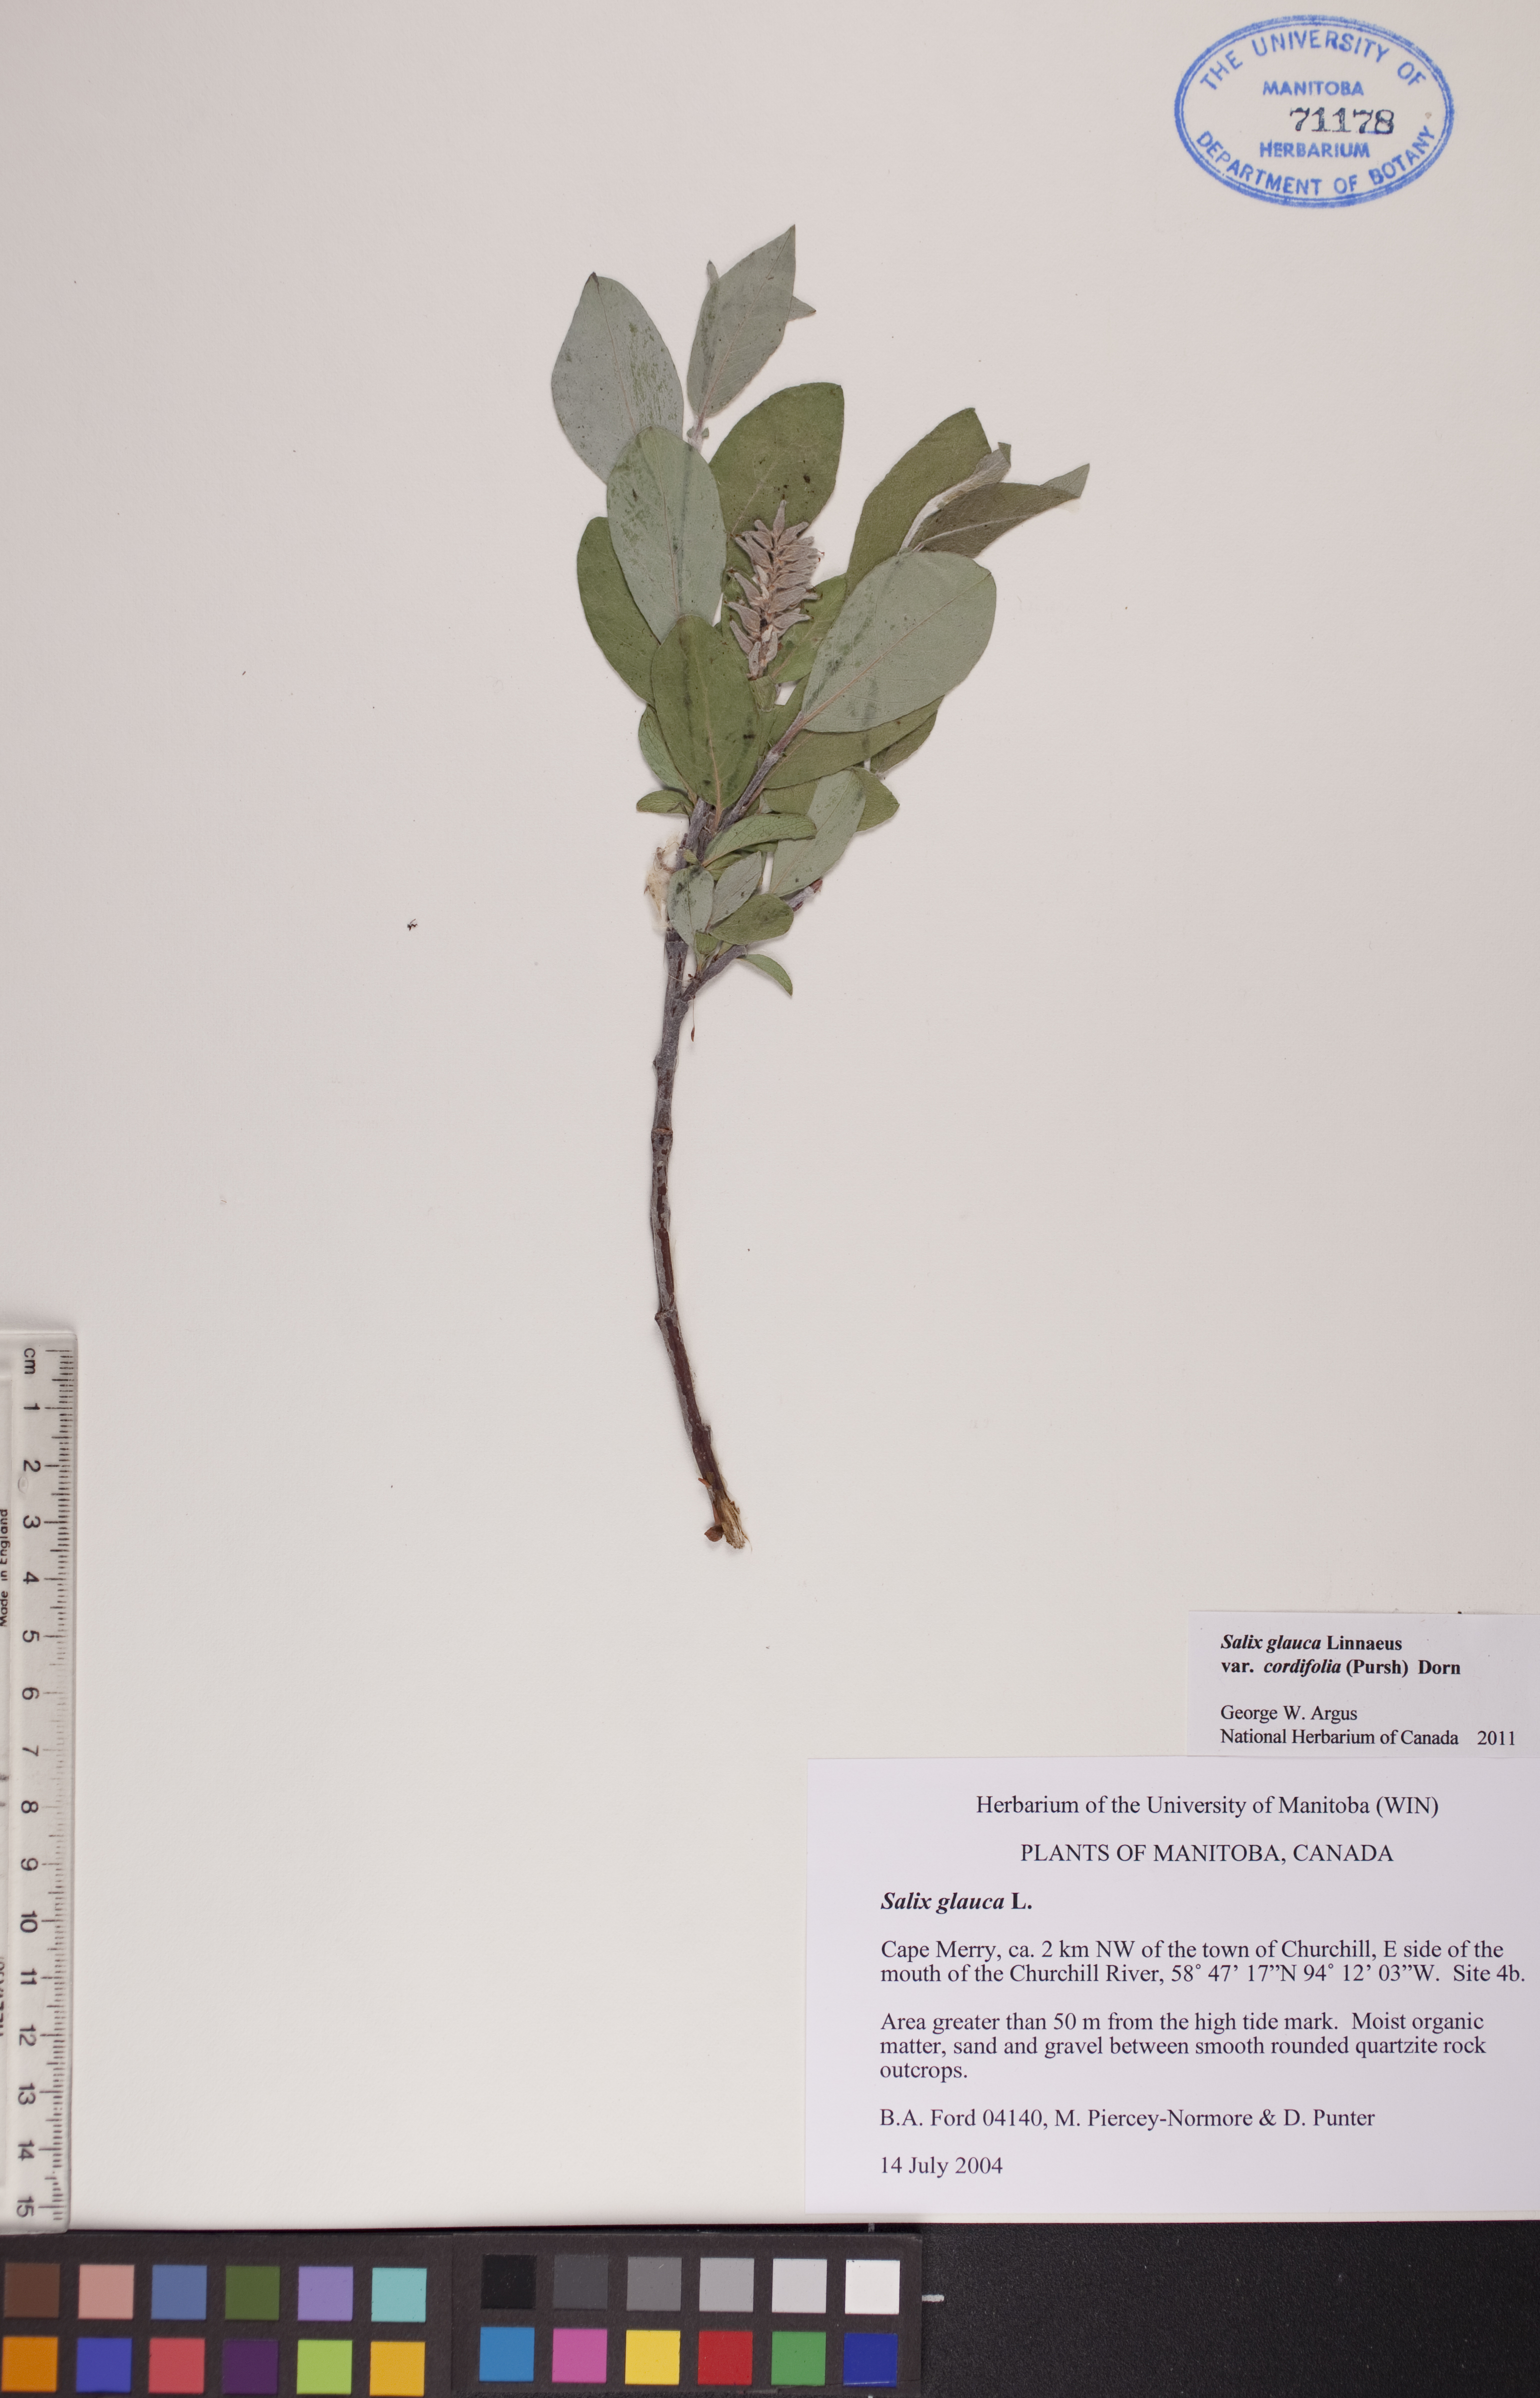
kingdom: Plantae
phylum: Tracheophyta
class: Magnoliopsida
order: Malpighiales
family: Salicaceae
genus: Salix
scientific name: Salix glauca
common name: Glaucous willow
